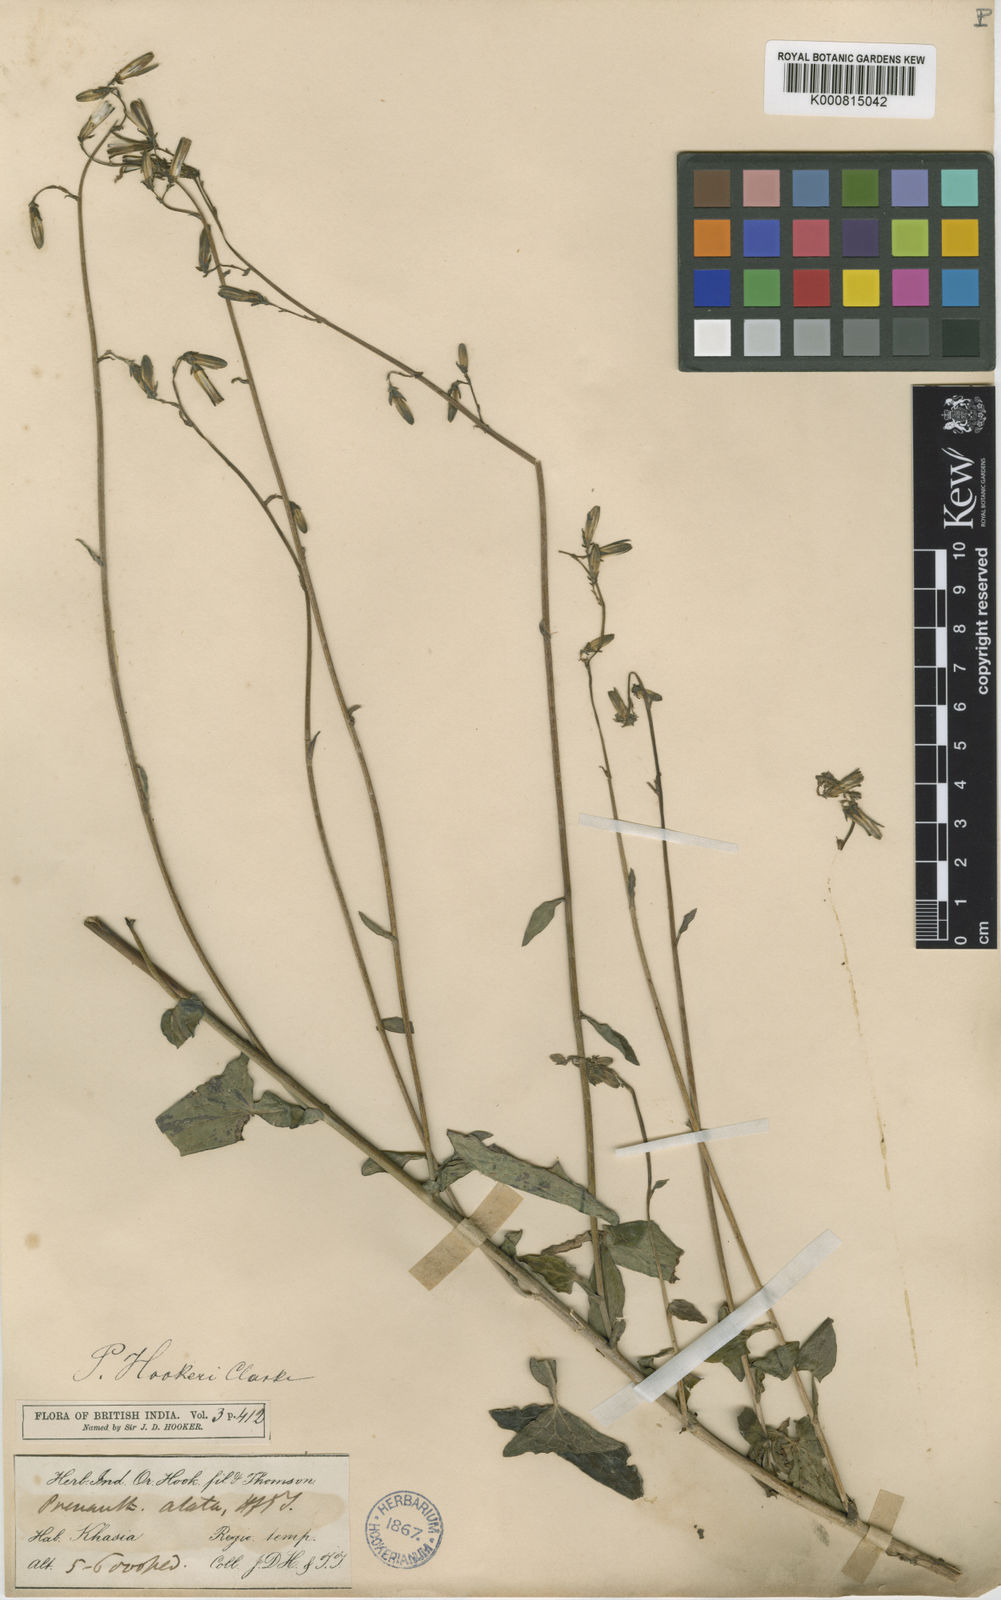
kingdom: Plantae
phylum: Tracheophyta
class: Magnoliopsida
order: Asterales
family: Asteraceae
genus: Prenanthes
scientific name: Prenanthes hookeri
